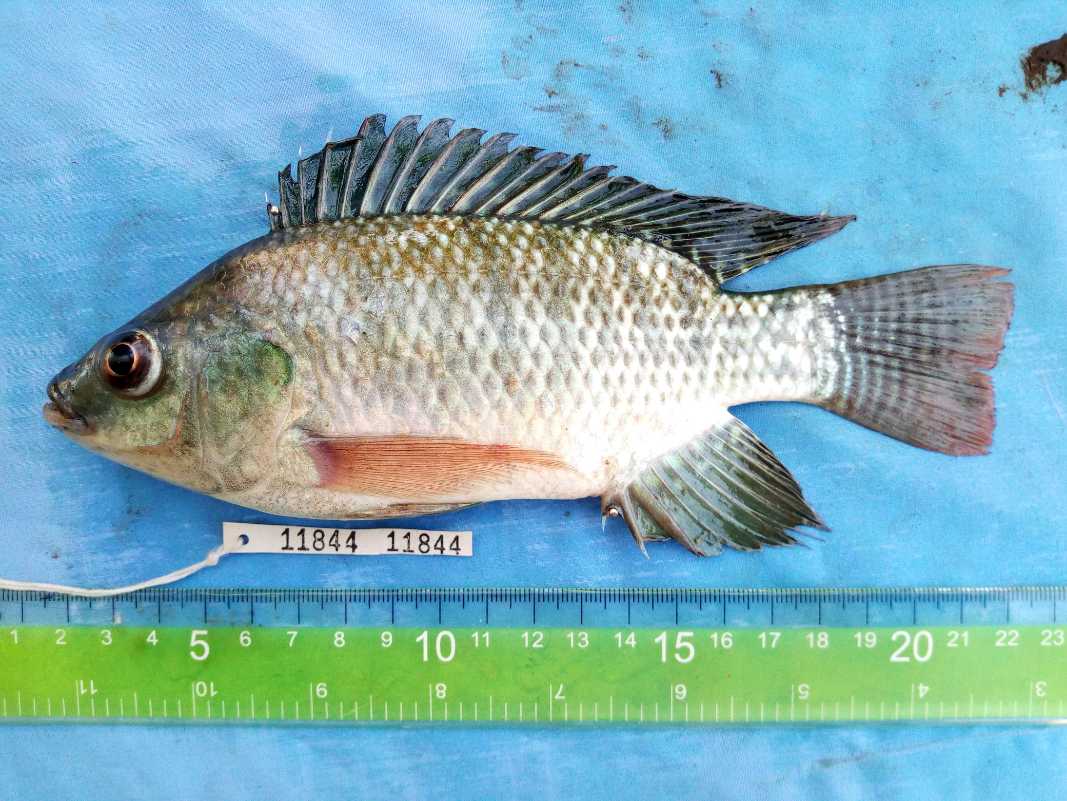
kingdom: Animalia
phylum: Chordata
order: Perciformes
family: Cichlidae
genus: Oreochromis
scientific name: Oreochromis niloticus
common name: Nile tilapia
